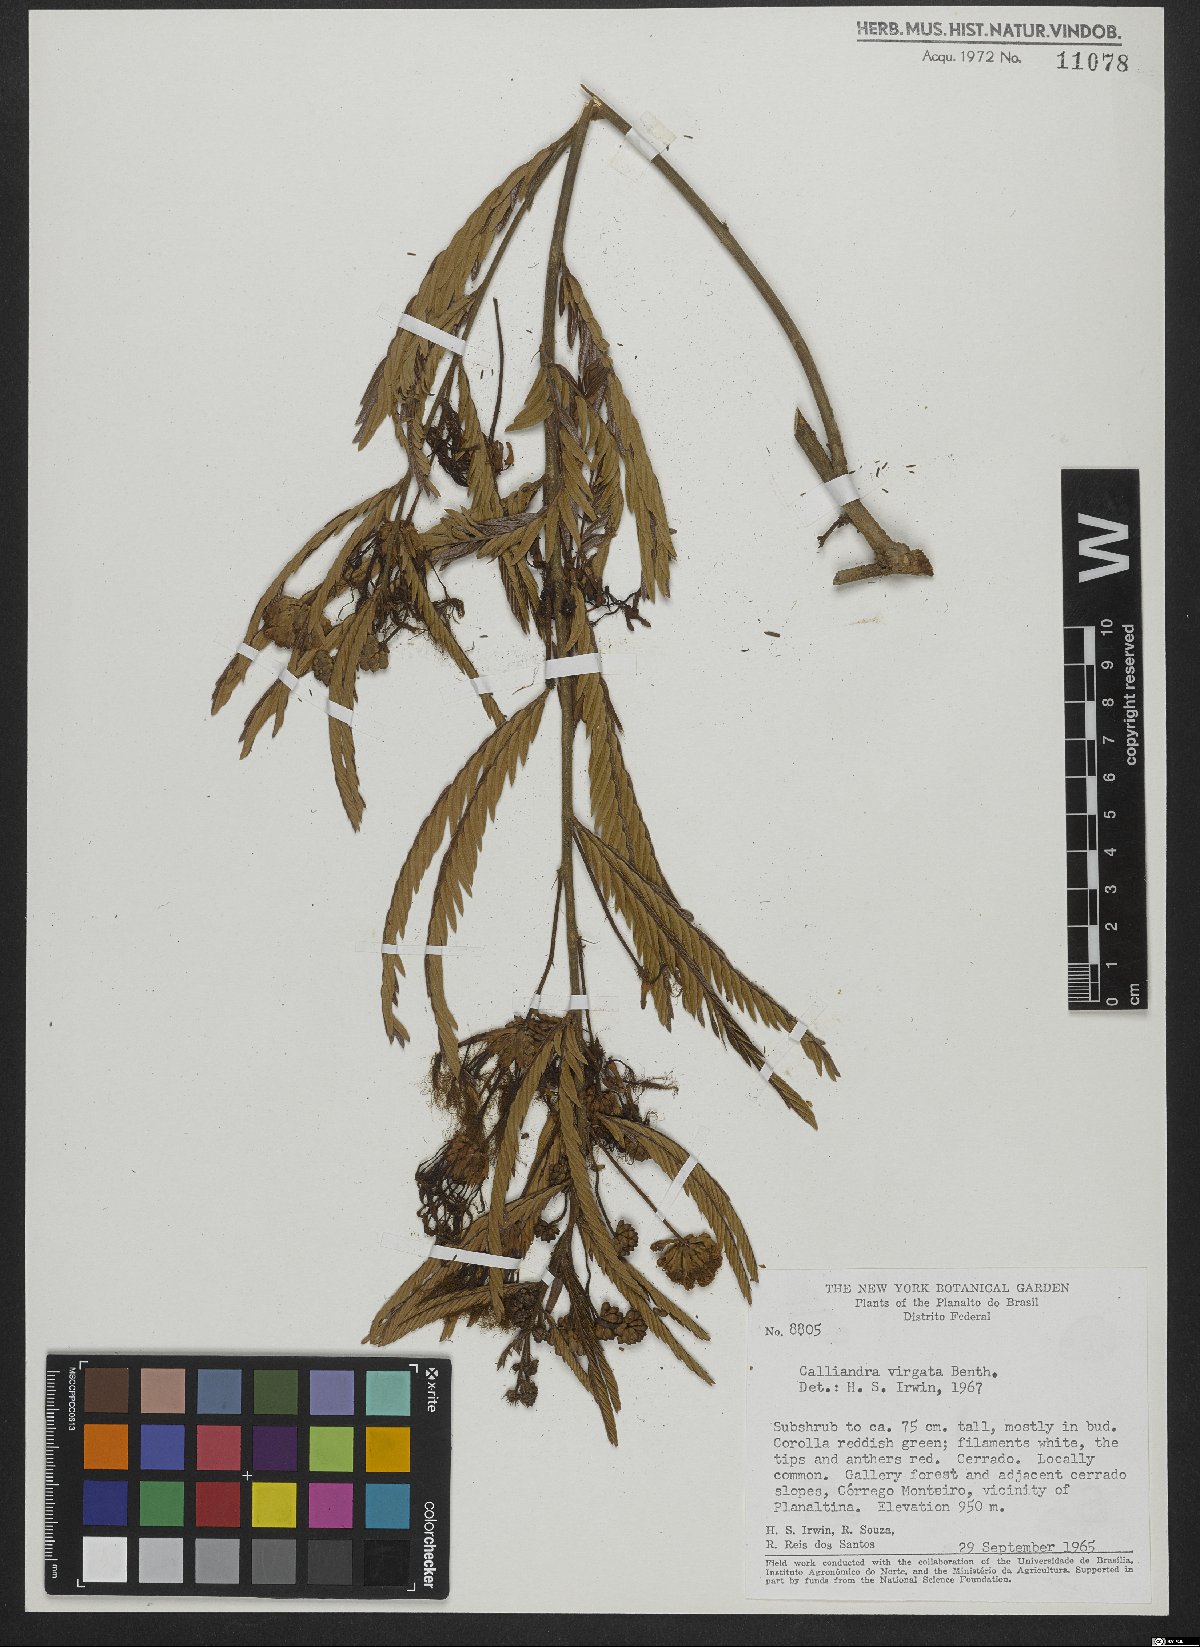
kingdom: Plantae
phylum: Tracheophyta
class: Magnoliopsida
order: Fabales
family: Fabaceae
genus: Calliandra
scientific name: Calliandra virgata
